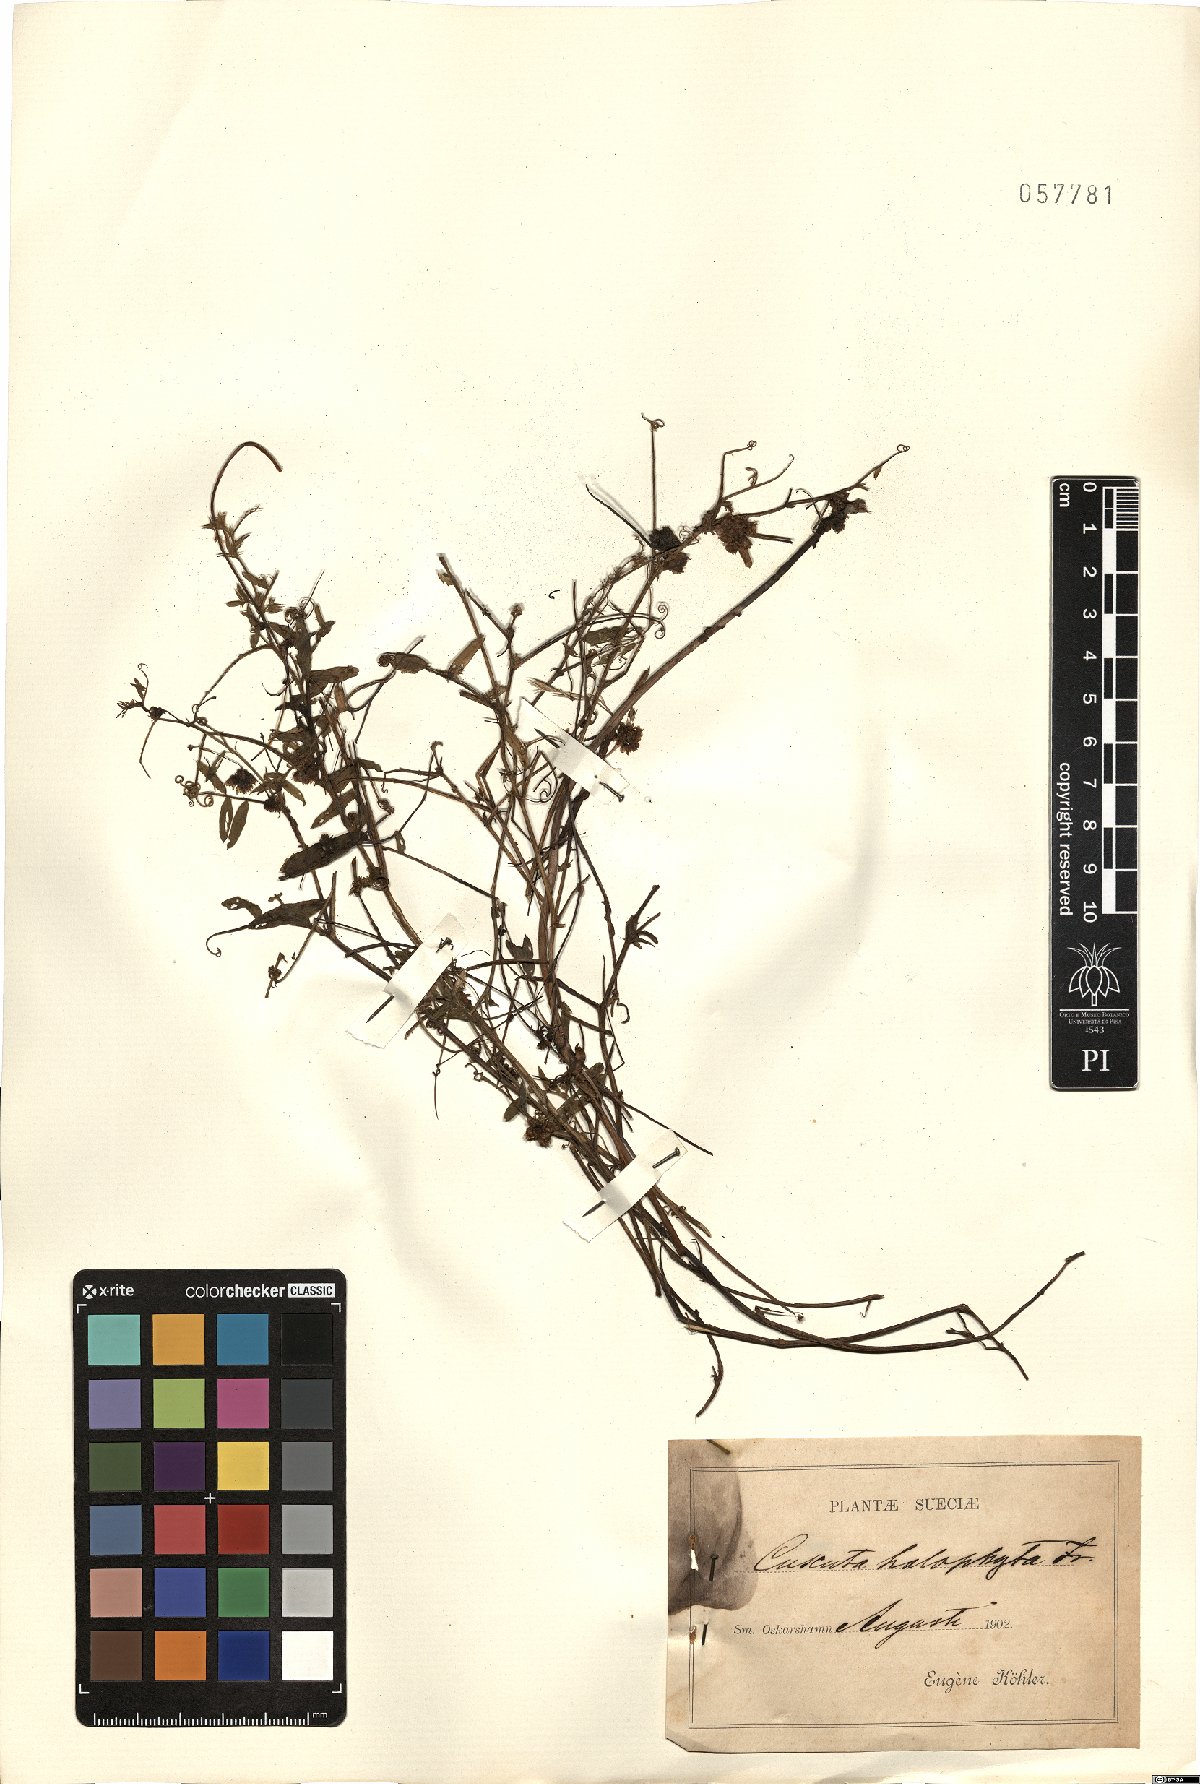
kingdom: Plantae
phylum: Tracheophyta
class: Magnoliopsida
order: Solanales
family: Convolvulaceae
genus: Cuscuta
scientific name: Cuscuta europaea
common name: Greater dodder
